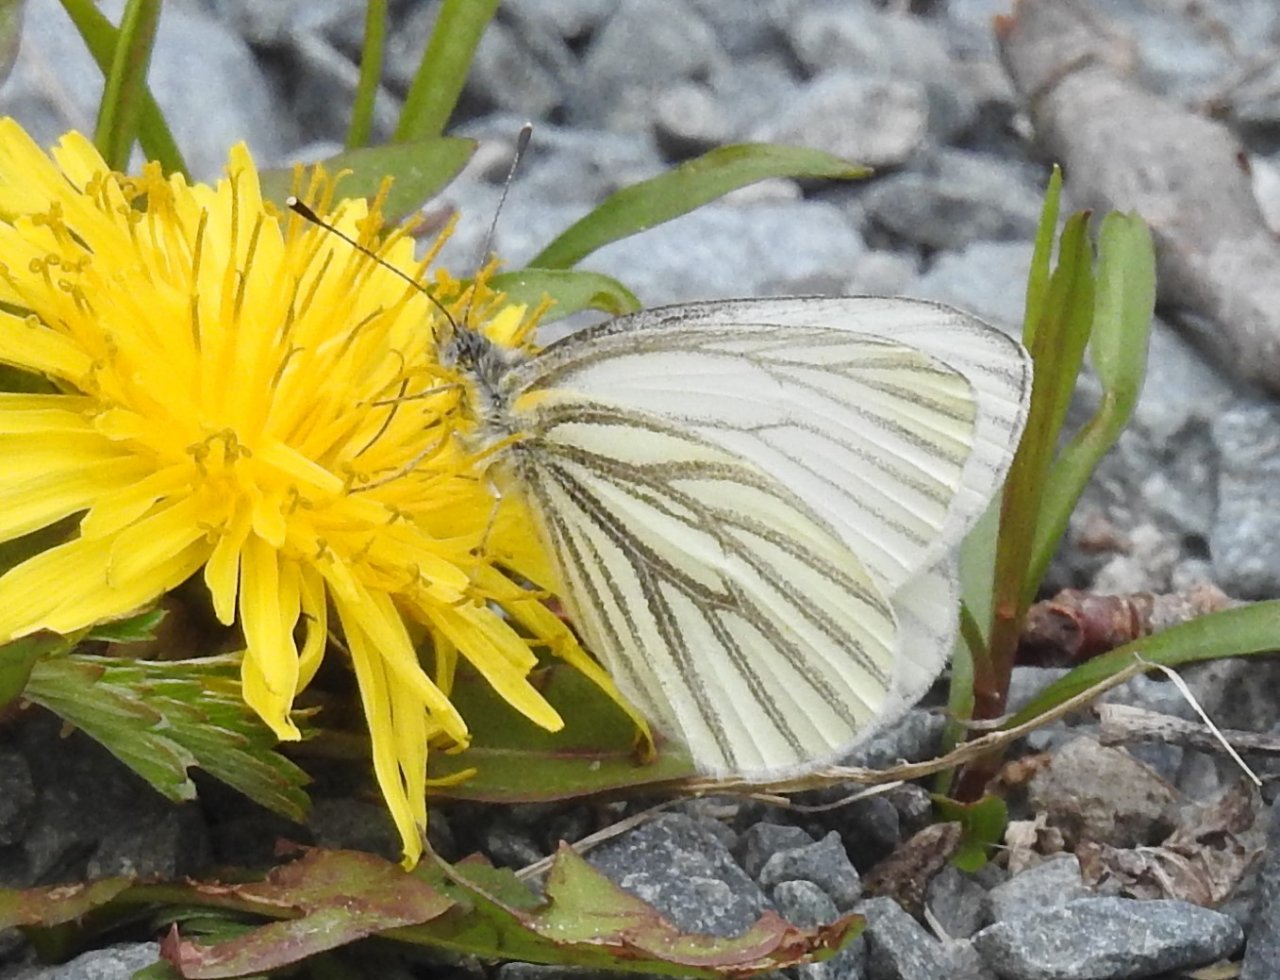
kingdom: Animalia
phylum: Arthropoda
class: Insecta
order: Lepidoptera
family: Pieridae
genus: Pieris
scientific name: Pieris oleracea
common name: Mustard White
